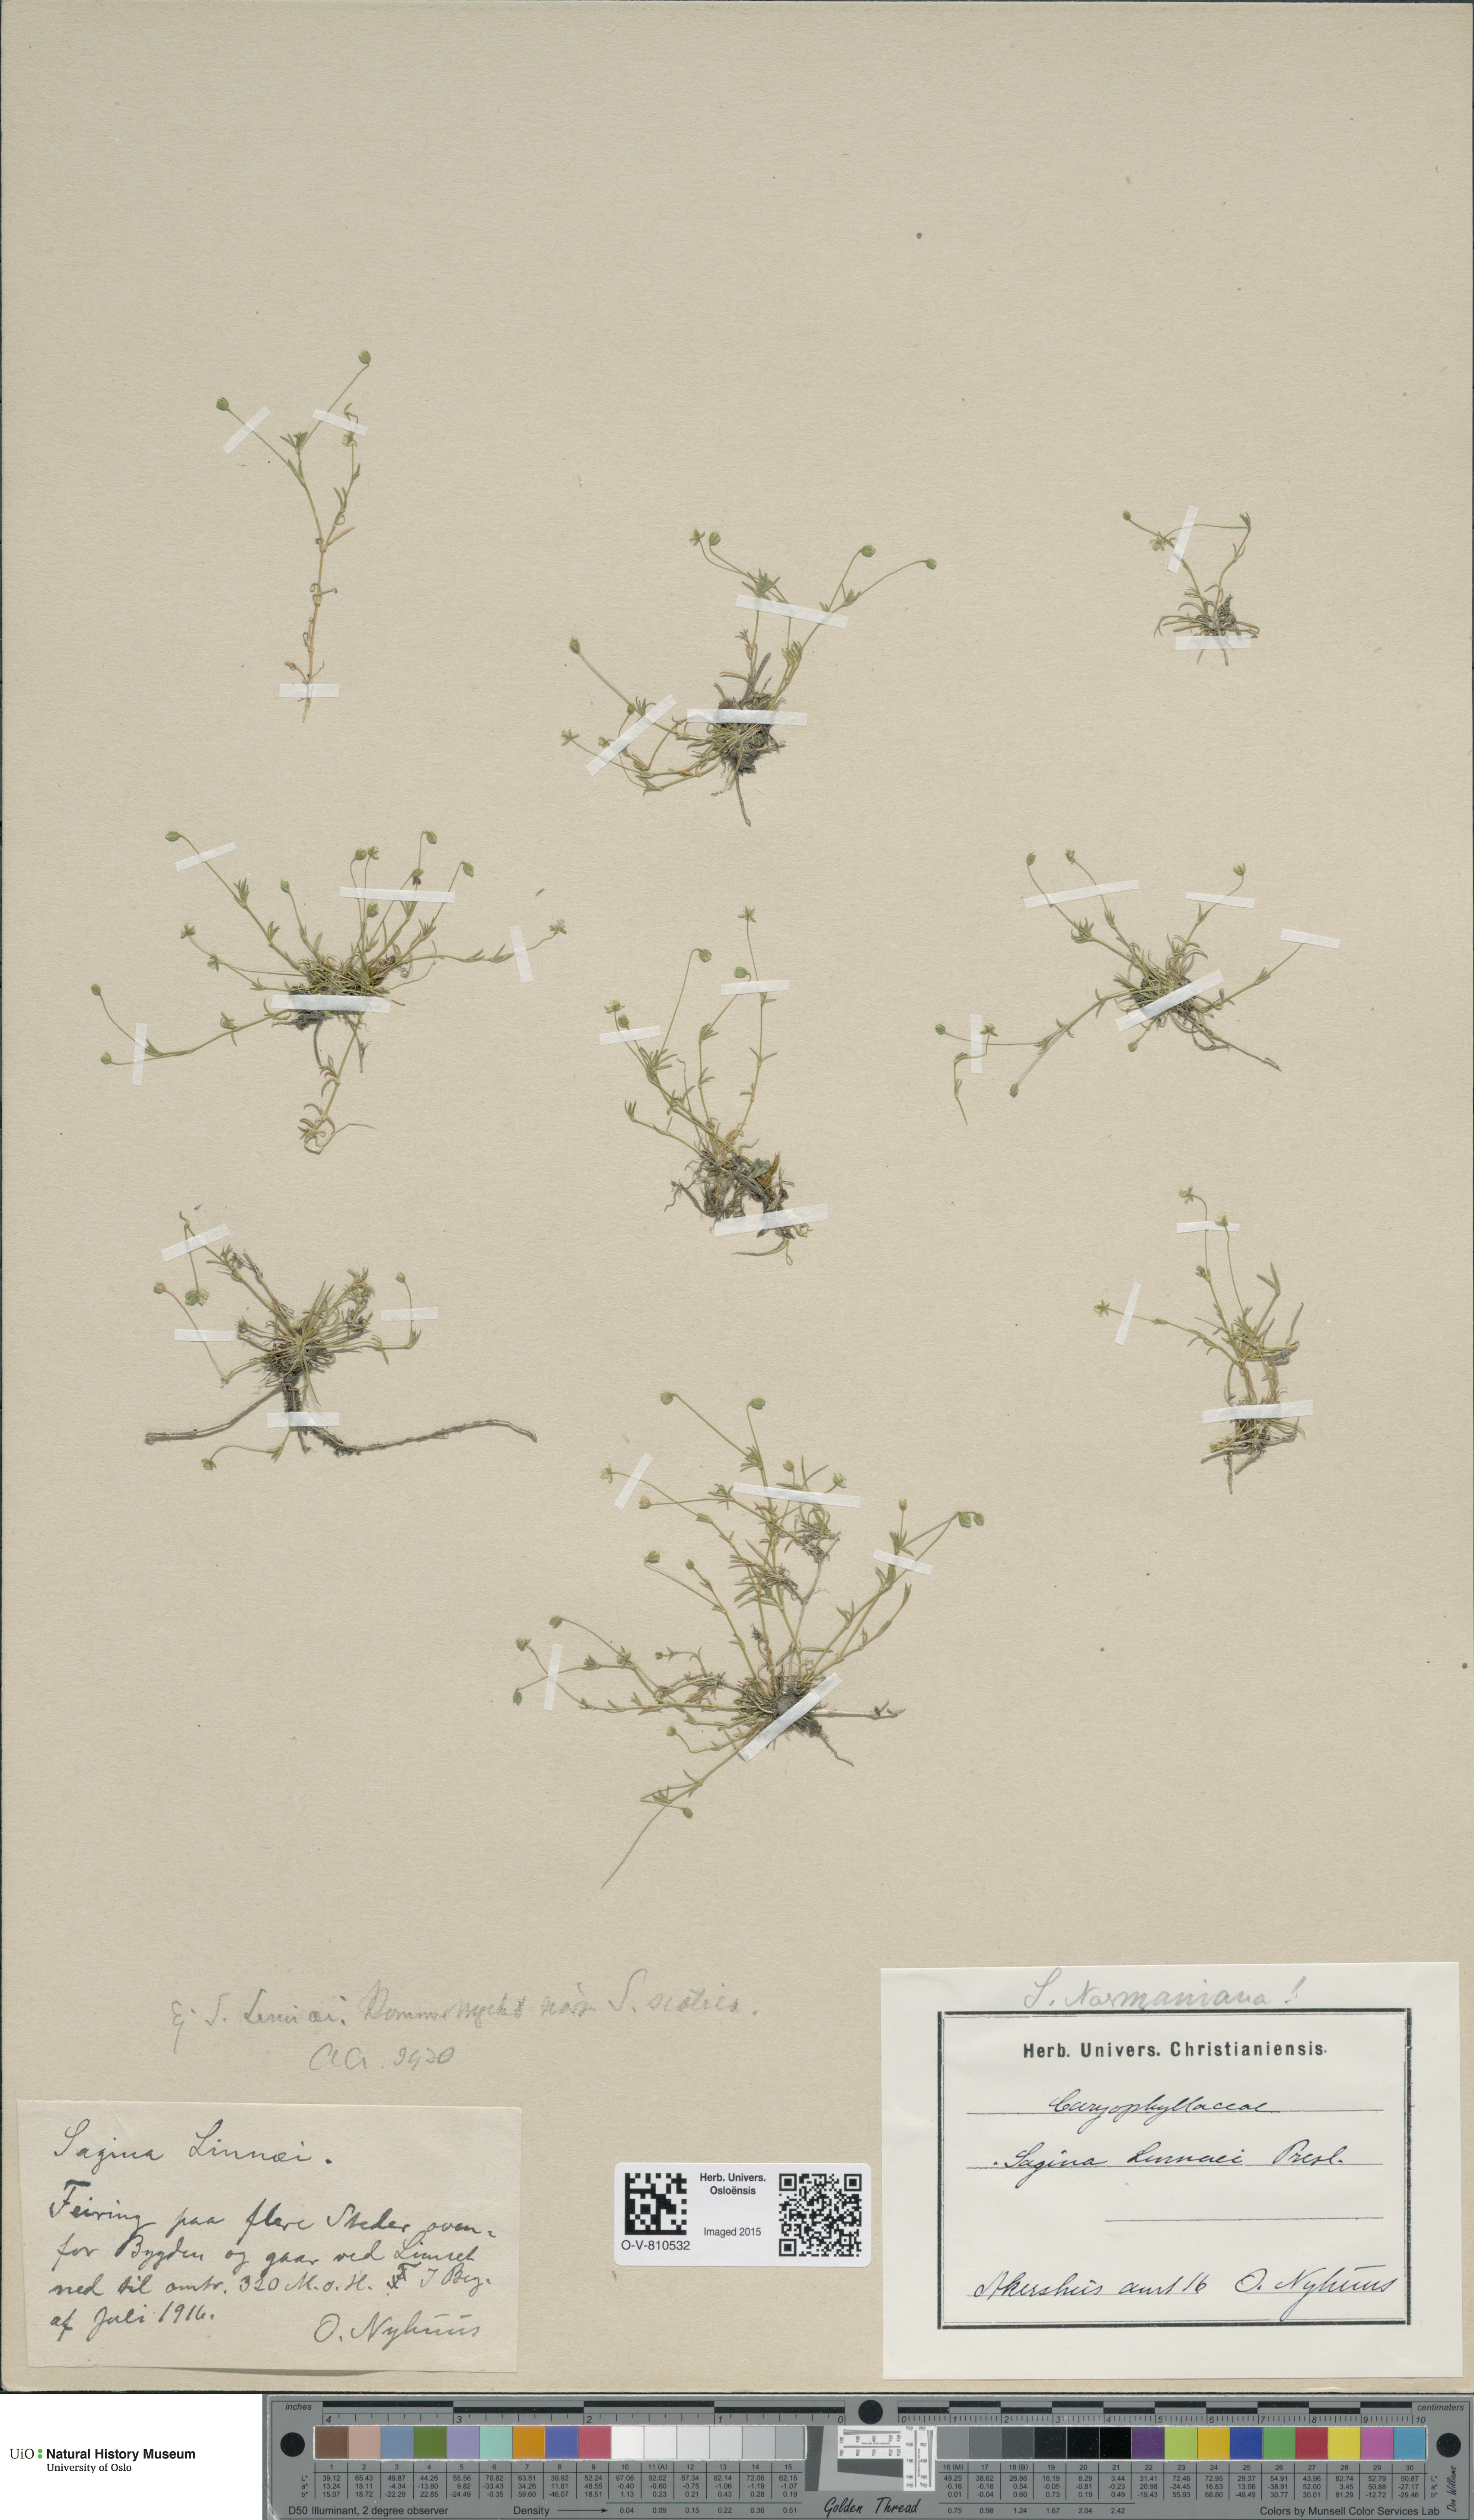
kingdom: Plantae
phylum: Tracheophyta
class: Magnoliopsida
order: Caryophyllales
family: Caryophyllaceae
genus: Sagina
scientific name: Sagina media
